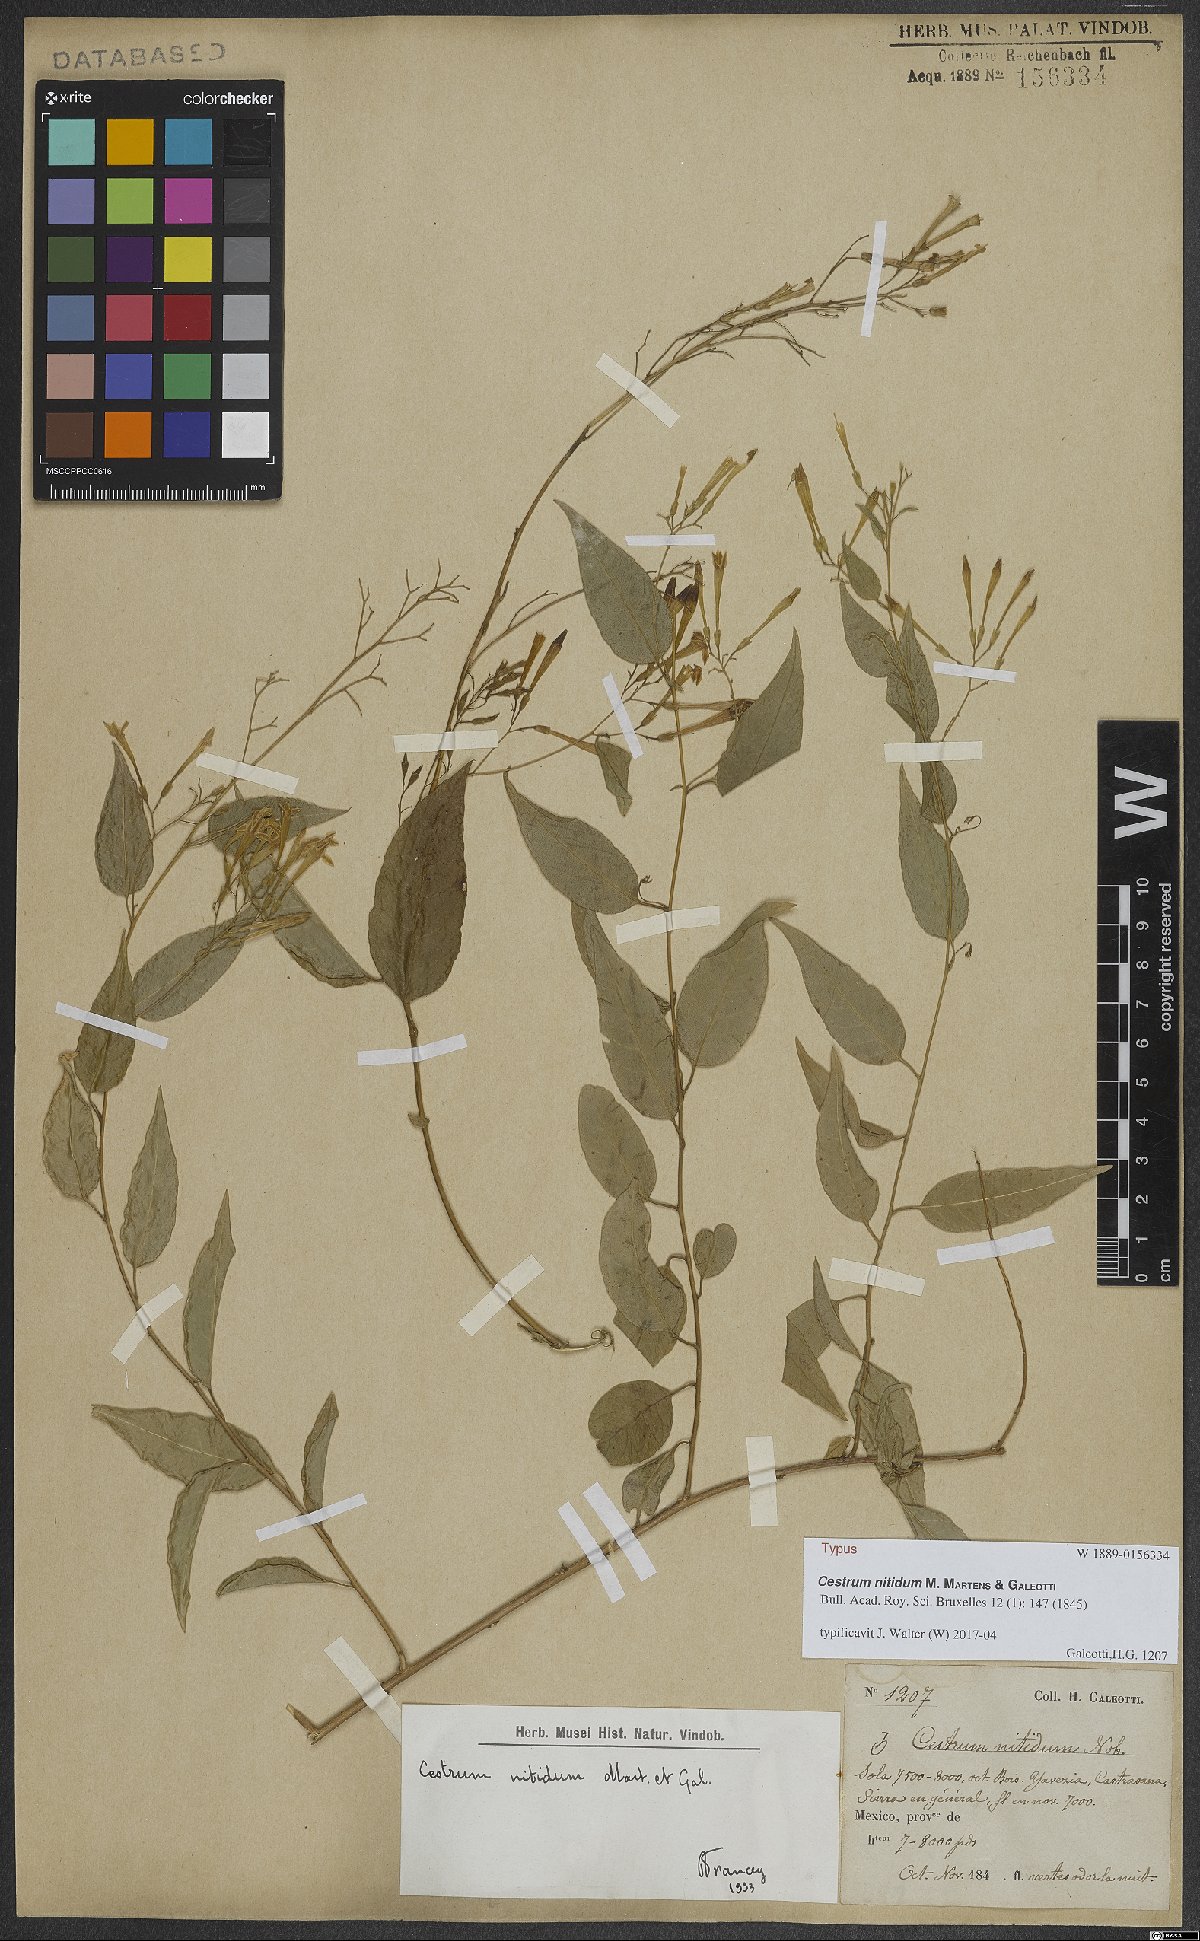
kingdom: Plantae
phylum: Tracheophyta
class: Magnoliopsida
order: Solanales
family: Solanaceae
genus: Cestrum
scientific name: Cestrum nitidum
